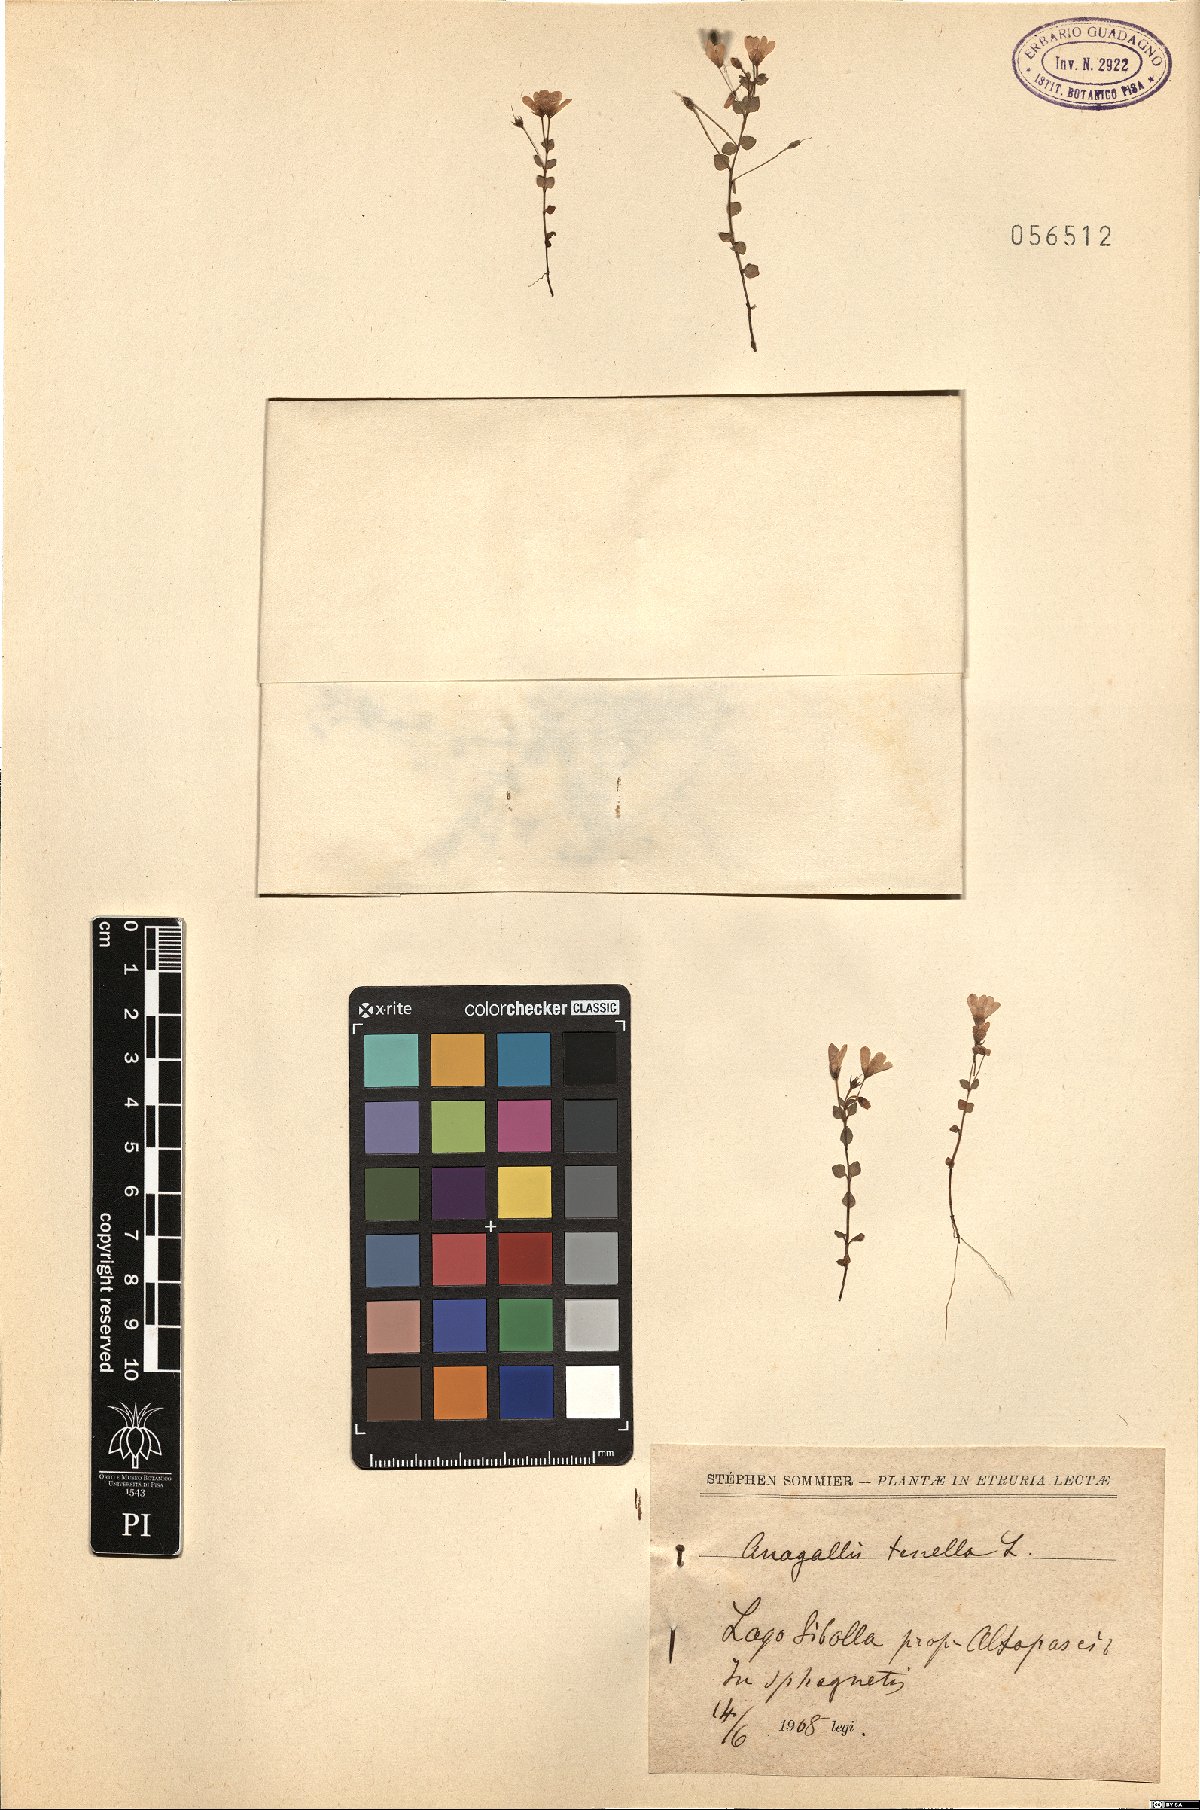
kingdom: Plantae
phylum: Tracheophyta
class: Magnoliopsida
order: Ericales
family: Primulaceae
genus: Lysimachia
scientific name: Lysimachia tenella
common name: European bog pimpernel
